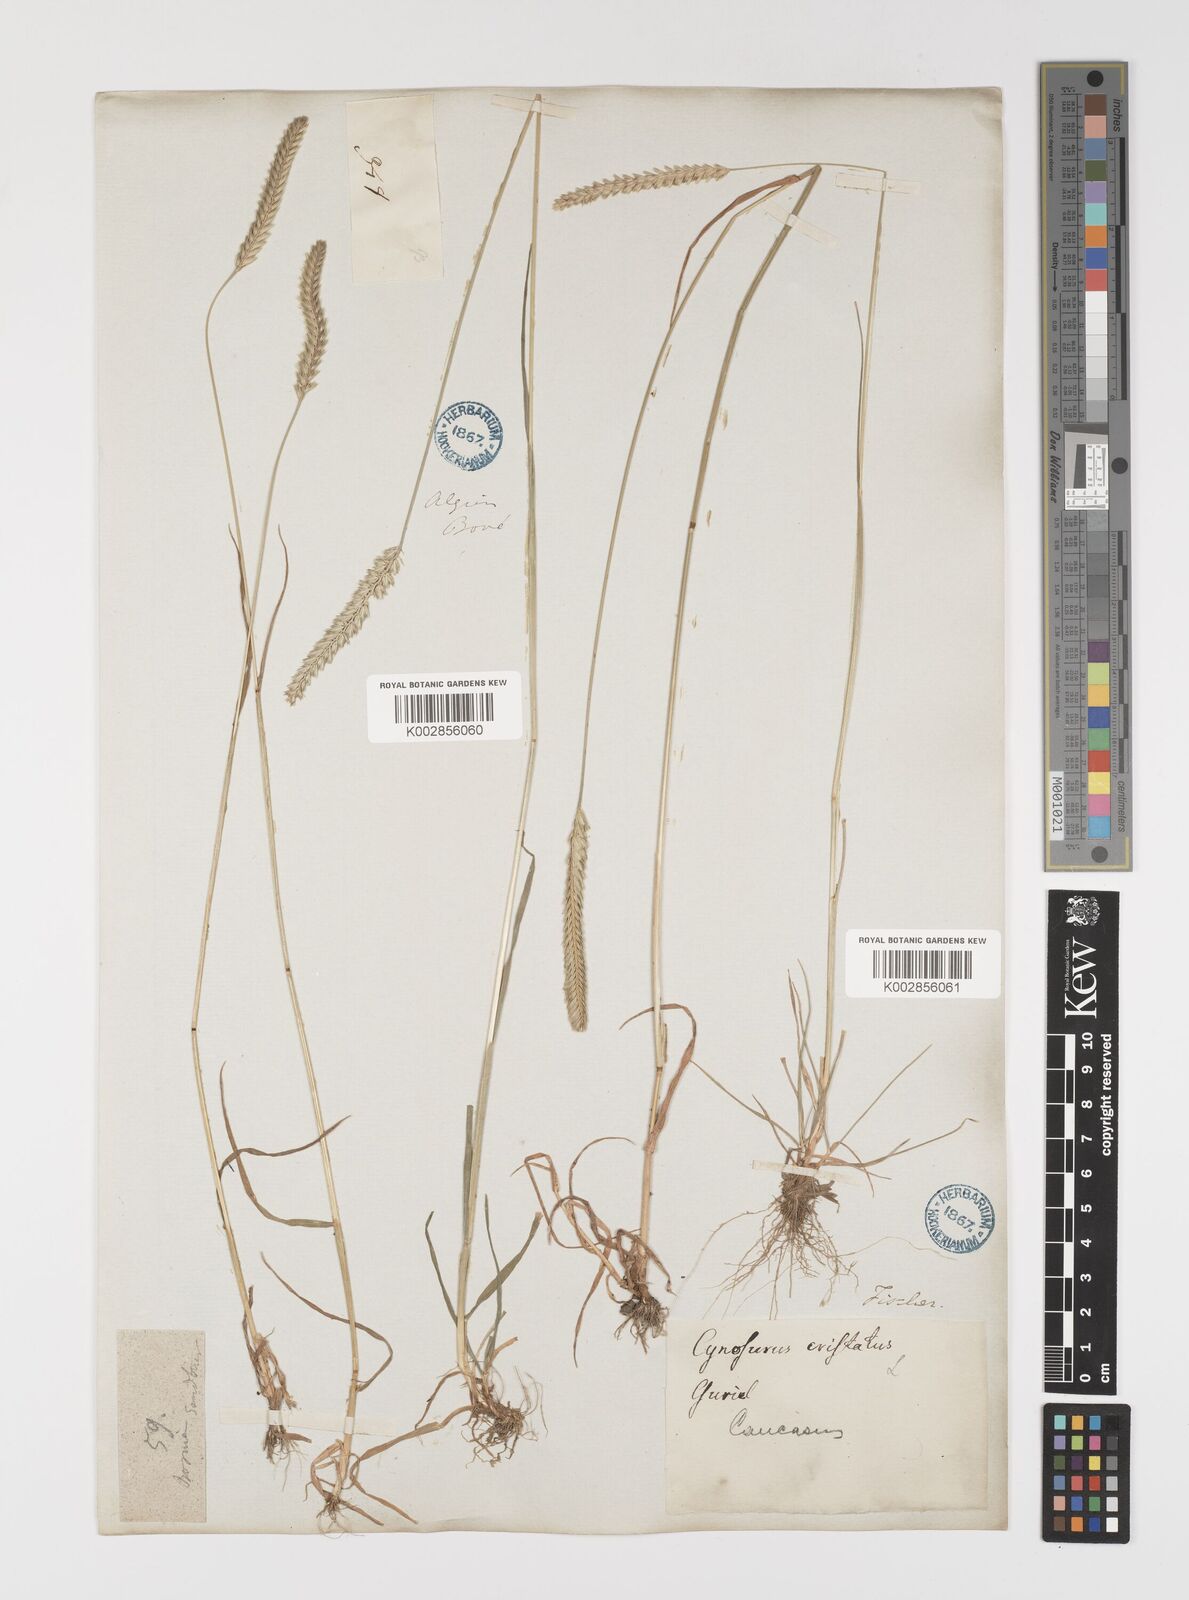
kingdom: Plantae
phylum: Tracheophyta
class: Liliopsida
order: Poales
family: Poaceae
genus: Cynosurus
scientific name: Cynosurus cristatus
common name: Crested dog's-tail
